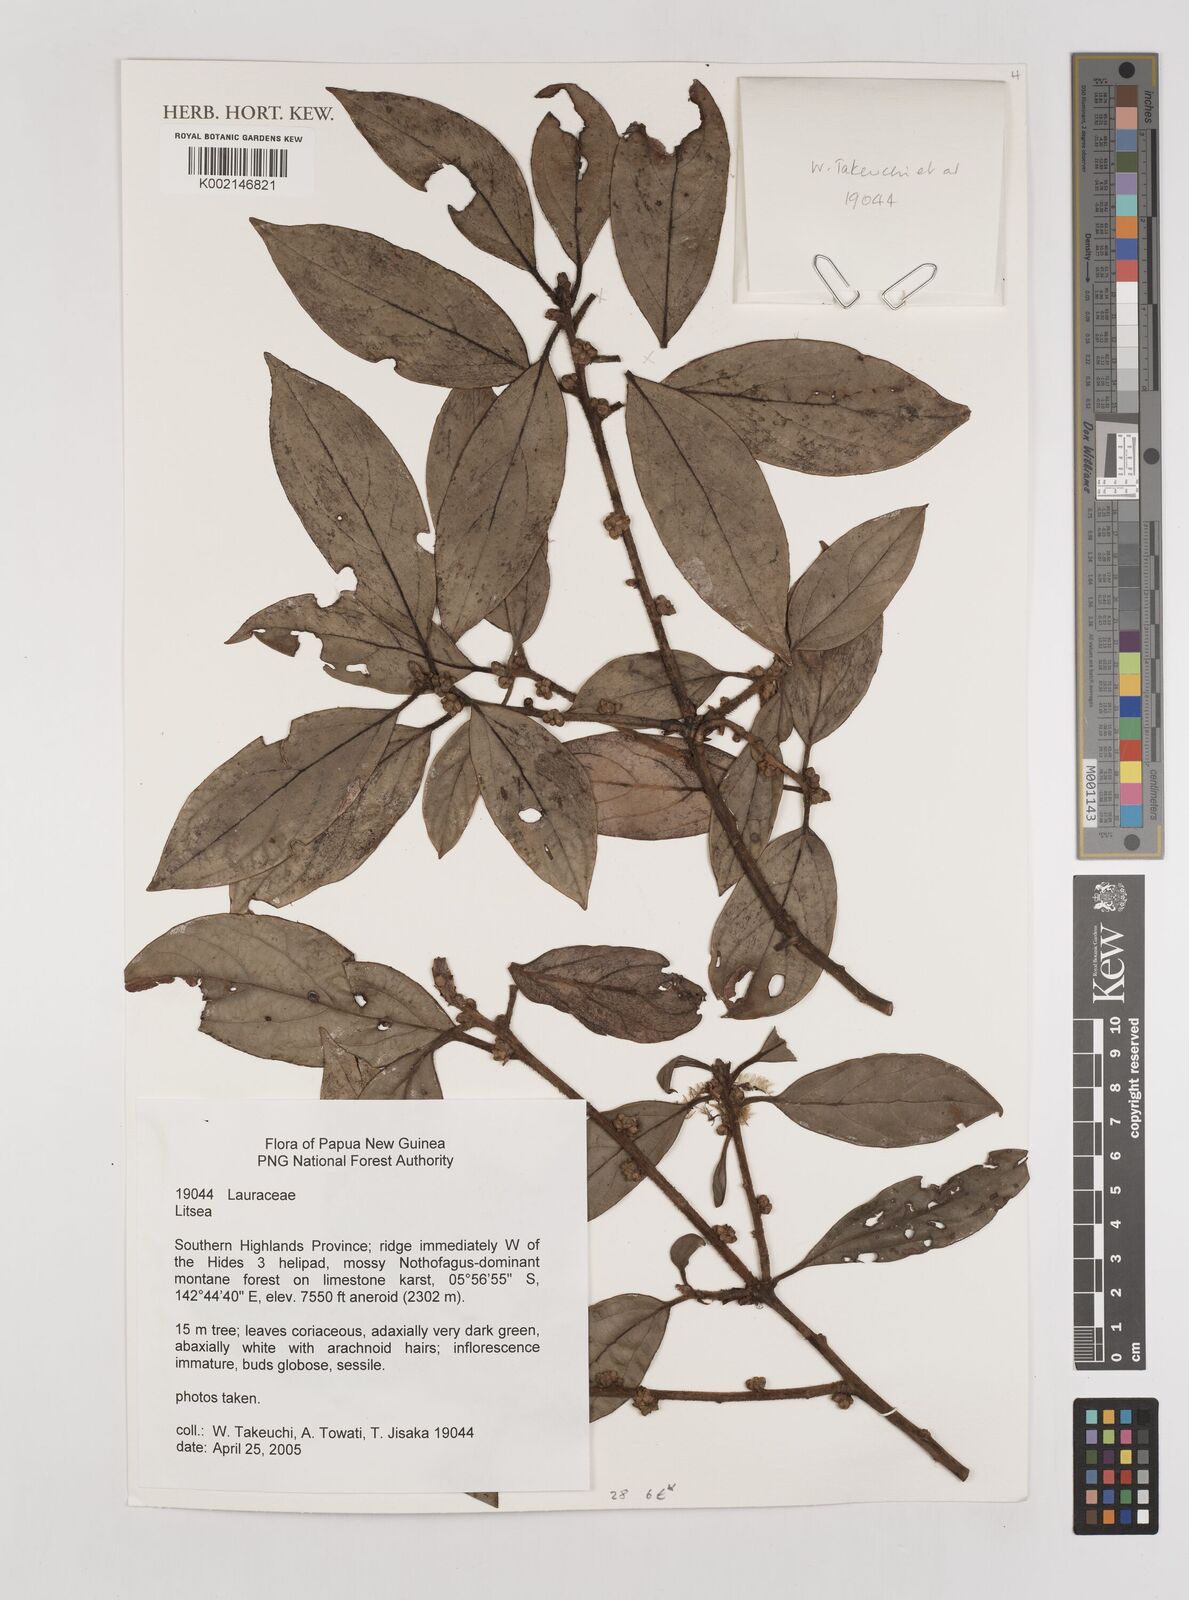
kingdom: Plantae
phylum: Tracheophyta
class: Magnoliopsida
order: Laurales
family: Lauraceae
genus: Litsea
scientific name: Litsea
